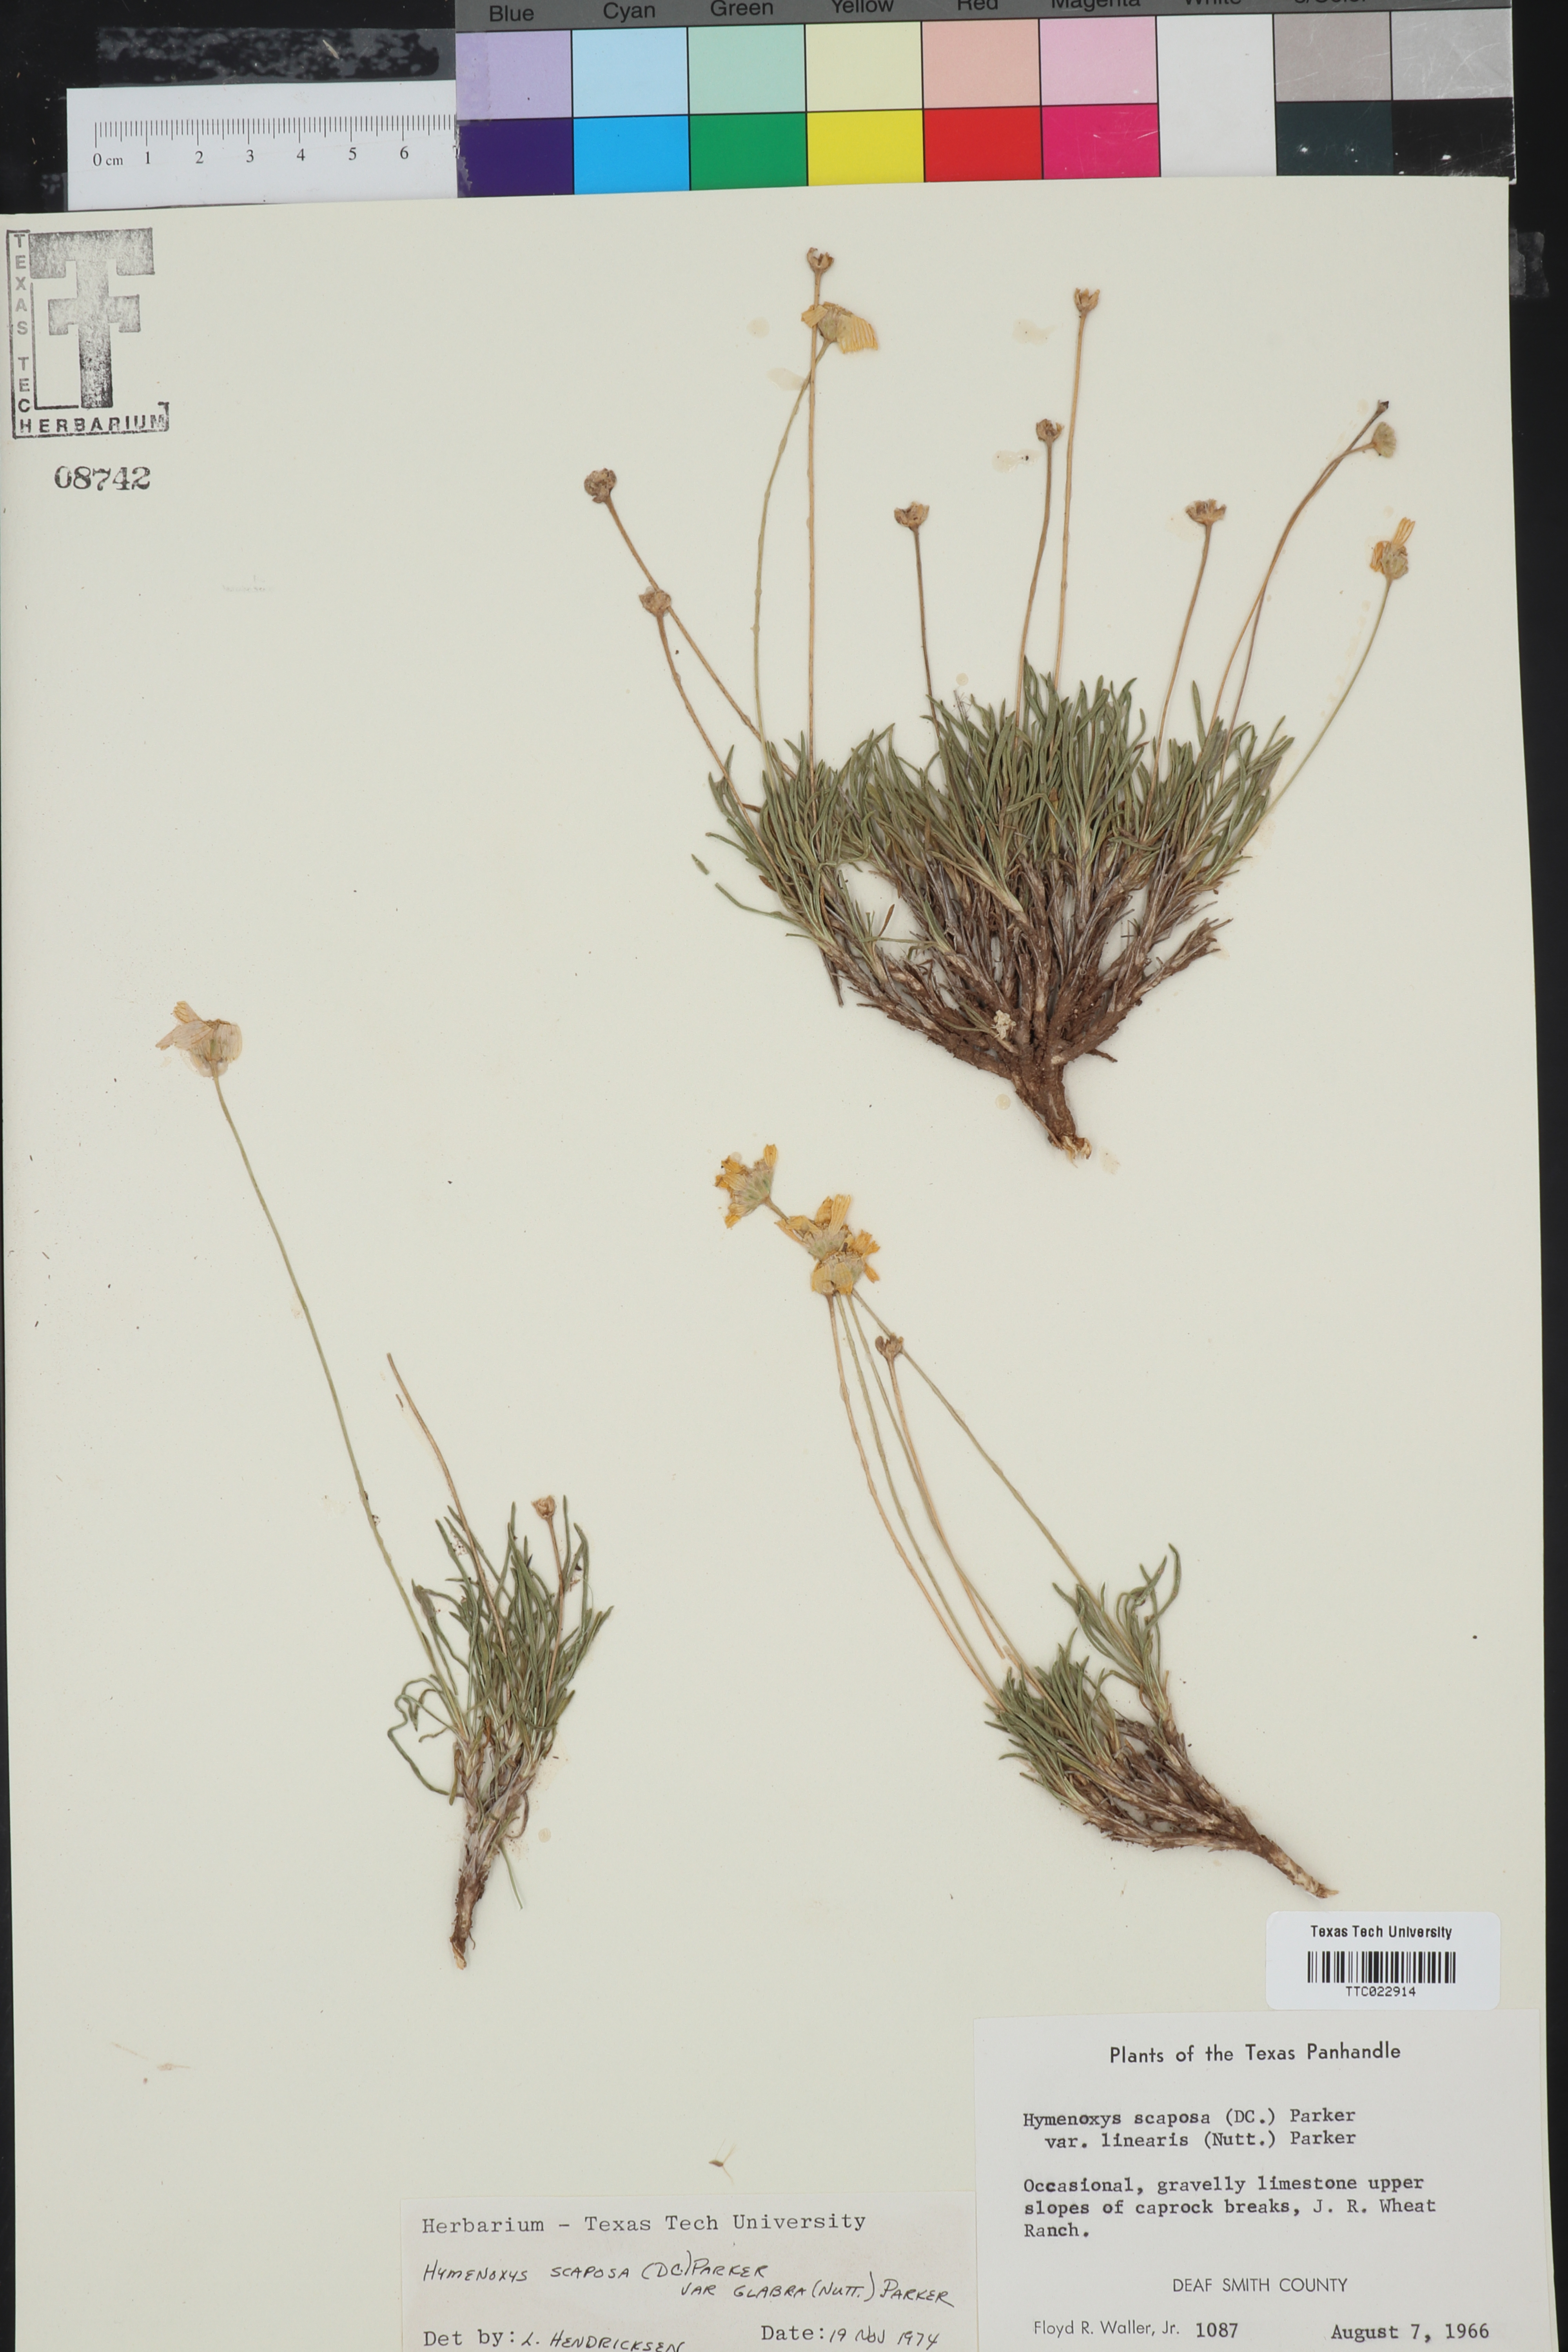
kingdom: Plantae
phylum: Tracheophyta
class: Magnoliopsida
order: Asterales
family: Asteraceae
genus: Tetraneuris
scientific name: Tetraneuris scaposa
